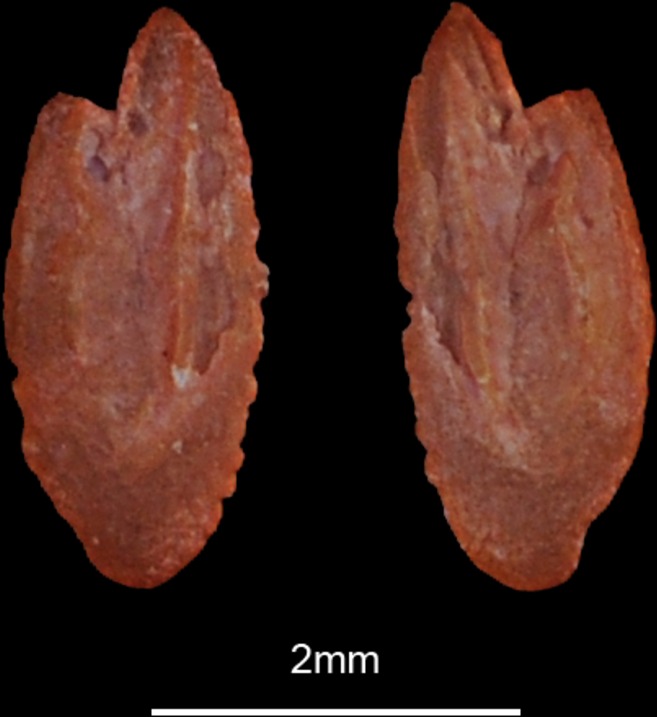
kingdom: Animalia
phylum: Chordata
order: Clupeiformes
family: Engraulidae
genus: Engraulis
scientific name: Engraulis encrasicolus
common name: European anchovy
